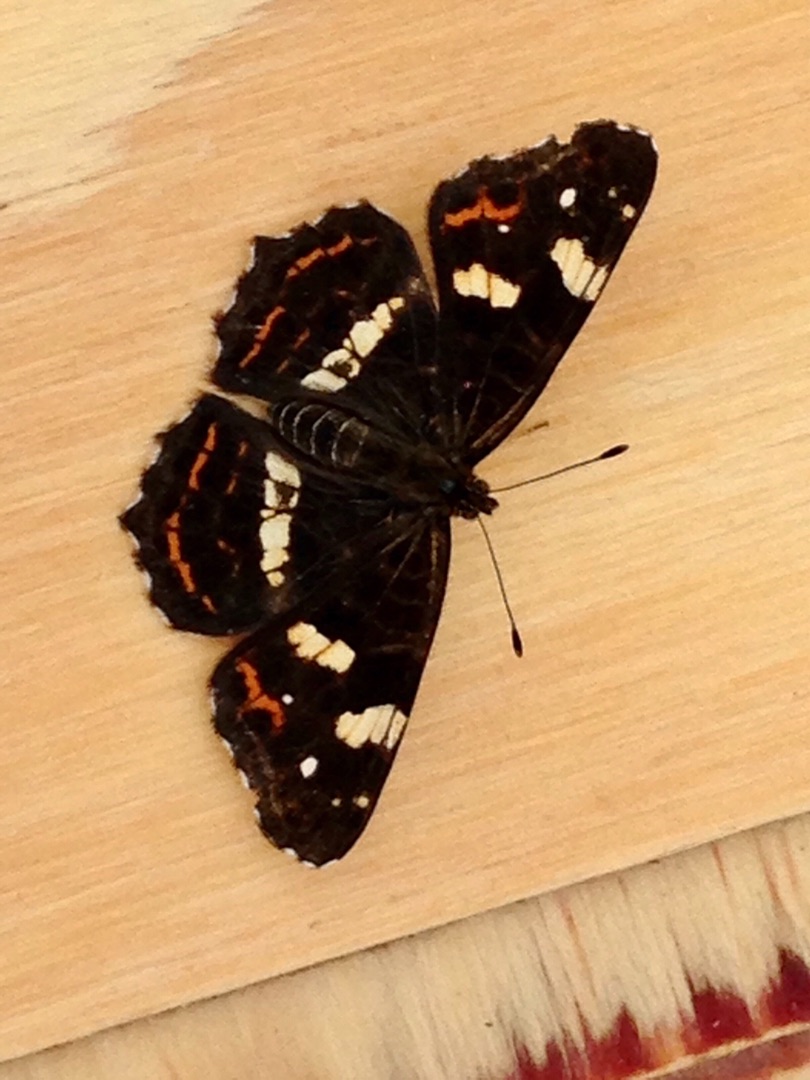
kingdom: Animalia
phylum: Arthropoda
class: Insecta
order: Lepidoptera
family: Nymphalidae
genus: Araschnia
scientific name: Araschnia levana
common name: Nældesommerfugl
